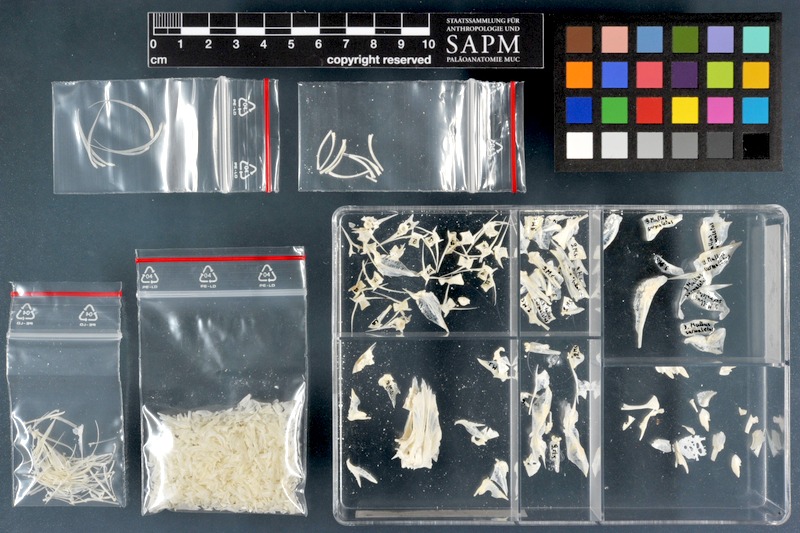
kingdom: Animalia
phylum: Chordata
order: Perciformes
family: Mullidae
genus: Mullus
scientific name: Mullus surmuletus
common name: Red mullet
